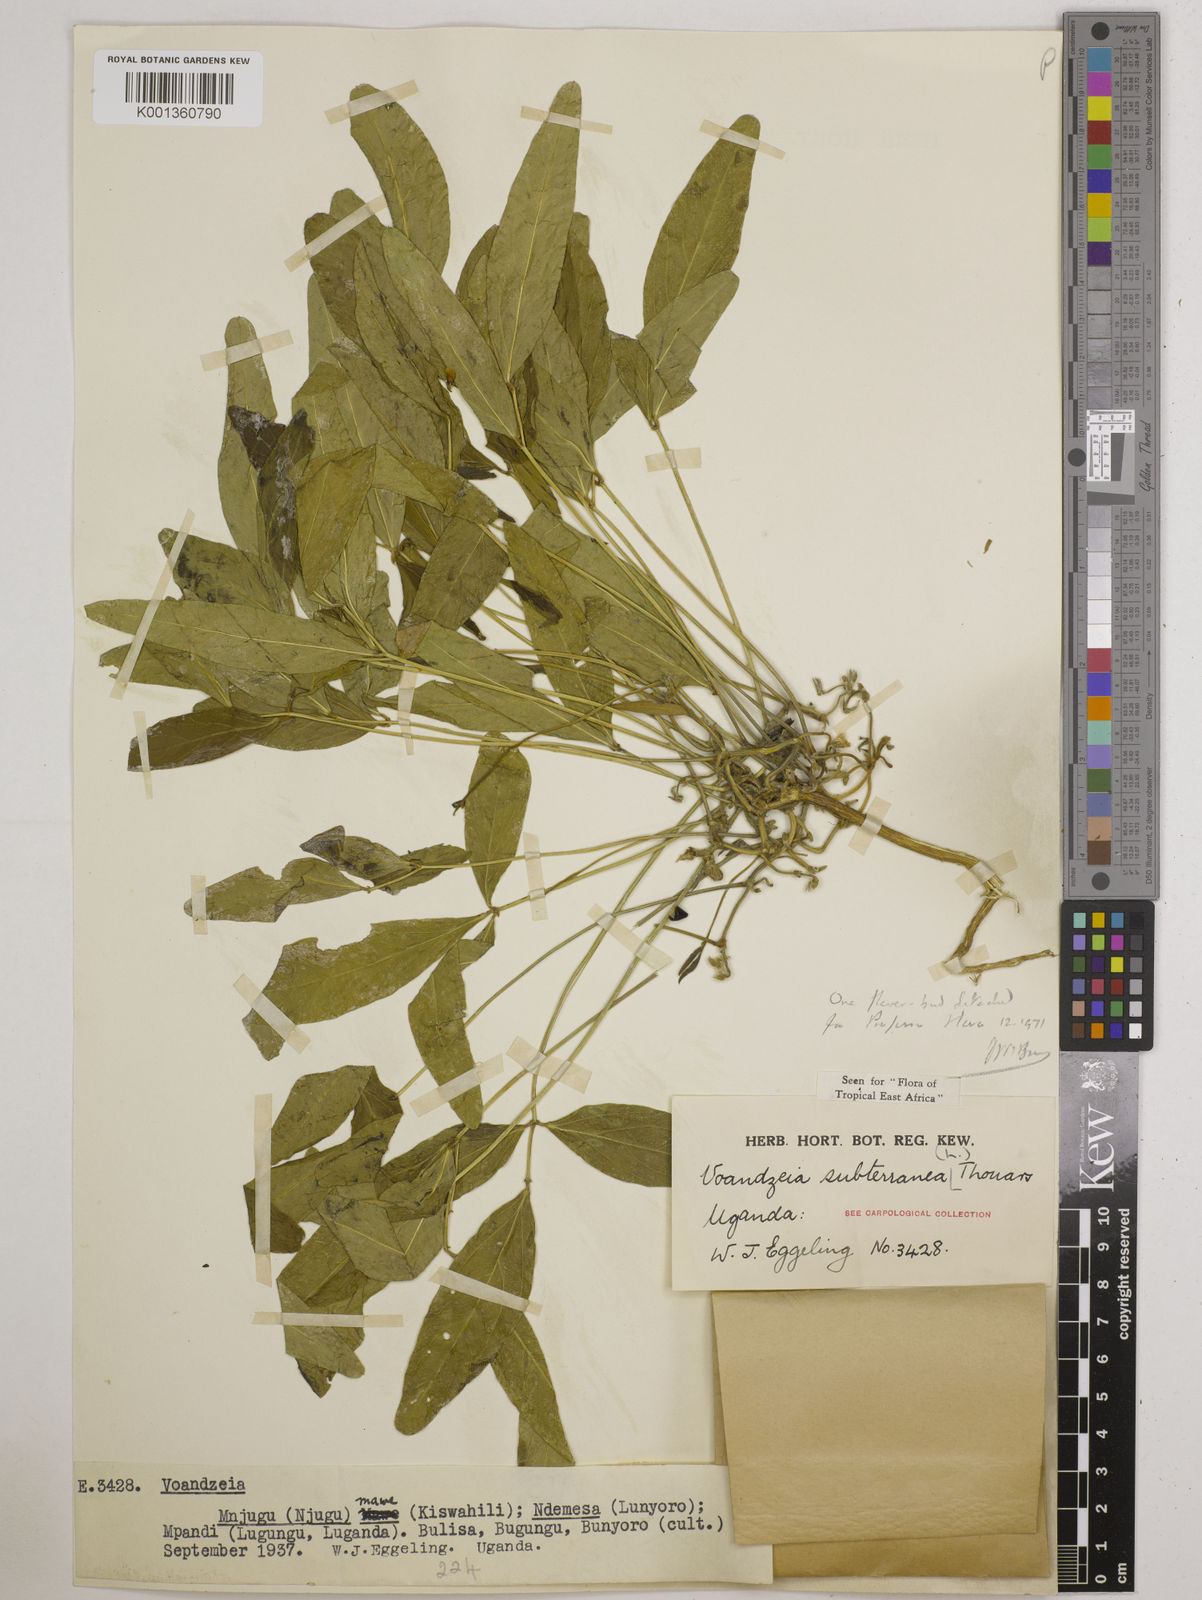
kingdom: Plantae
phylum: Tracheophyta
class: Magnoliopsida
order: Fabales
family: Fabaceae
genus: Vigna
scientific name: Vigna subterranea
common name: Bambara groundnut
